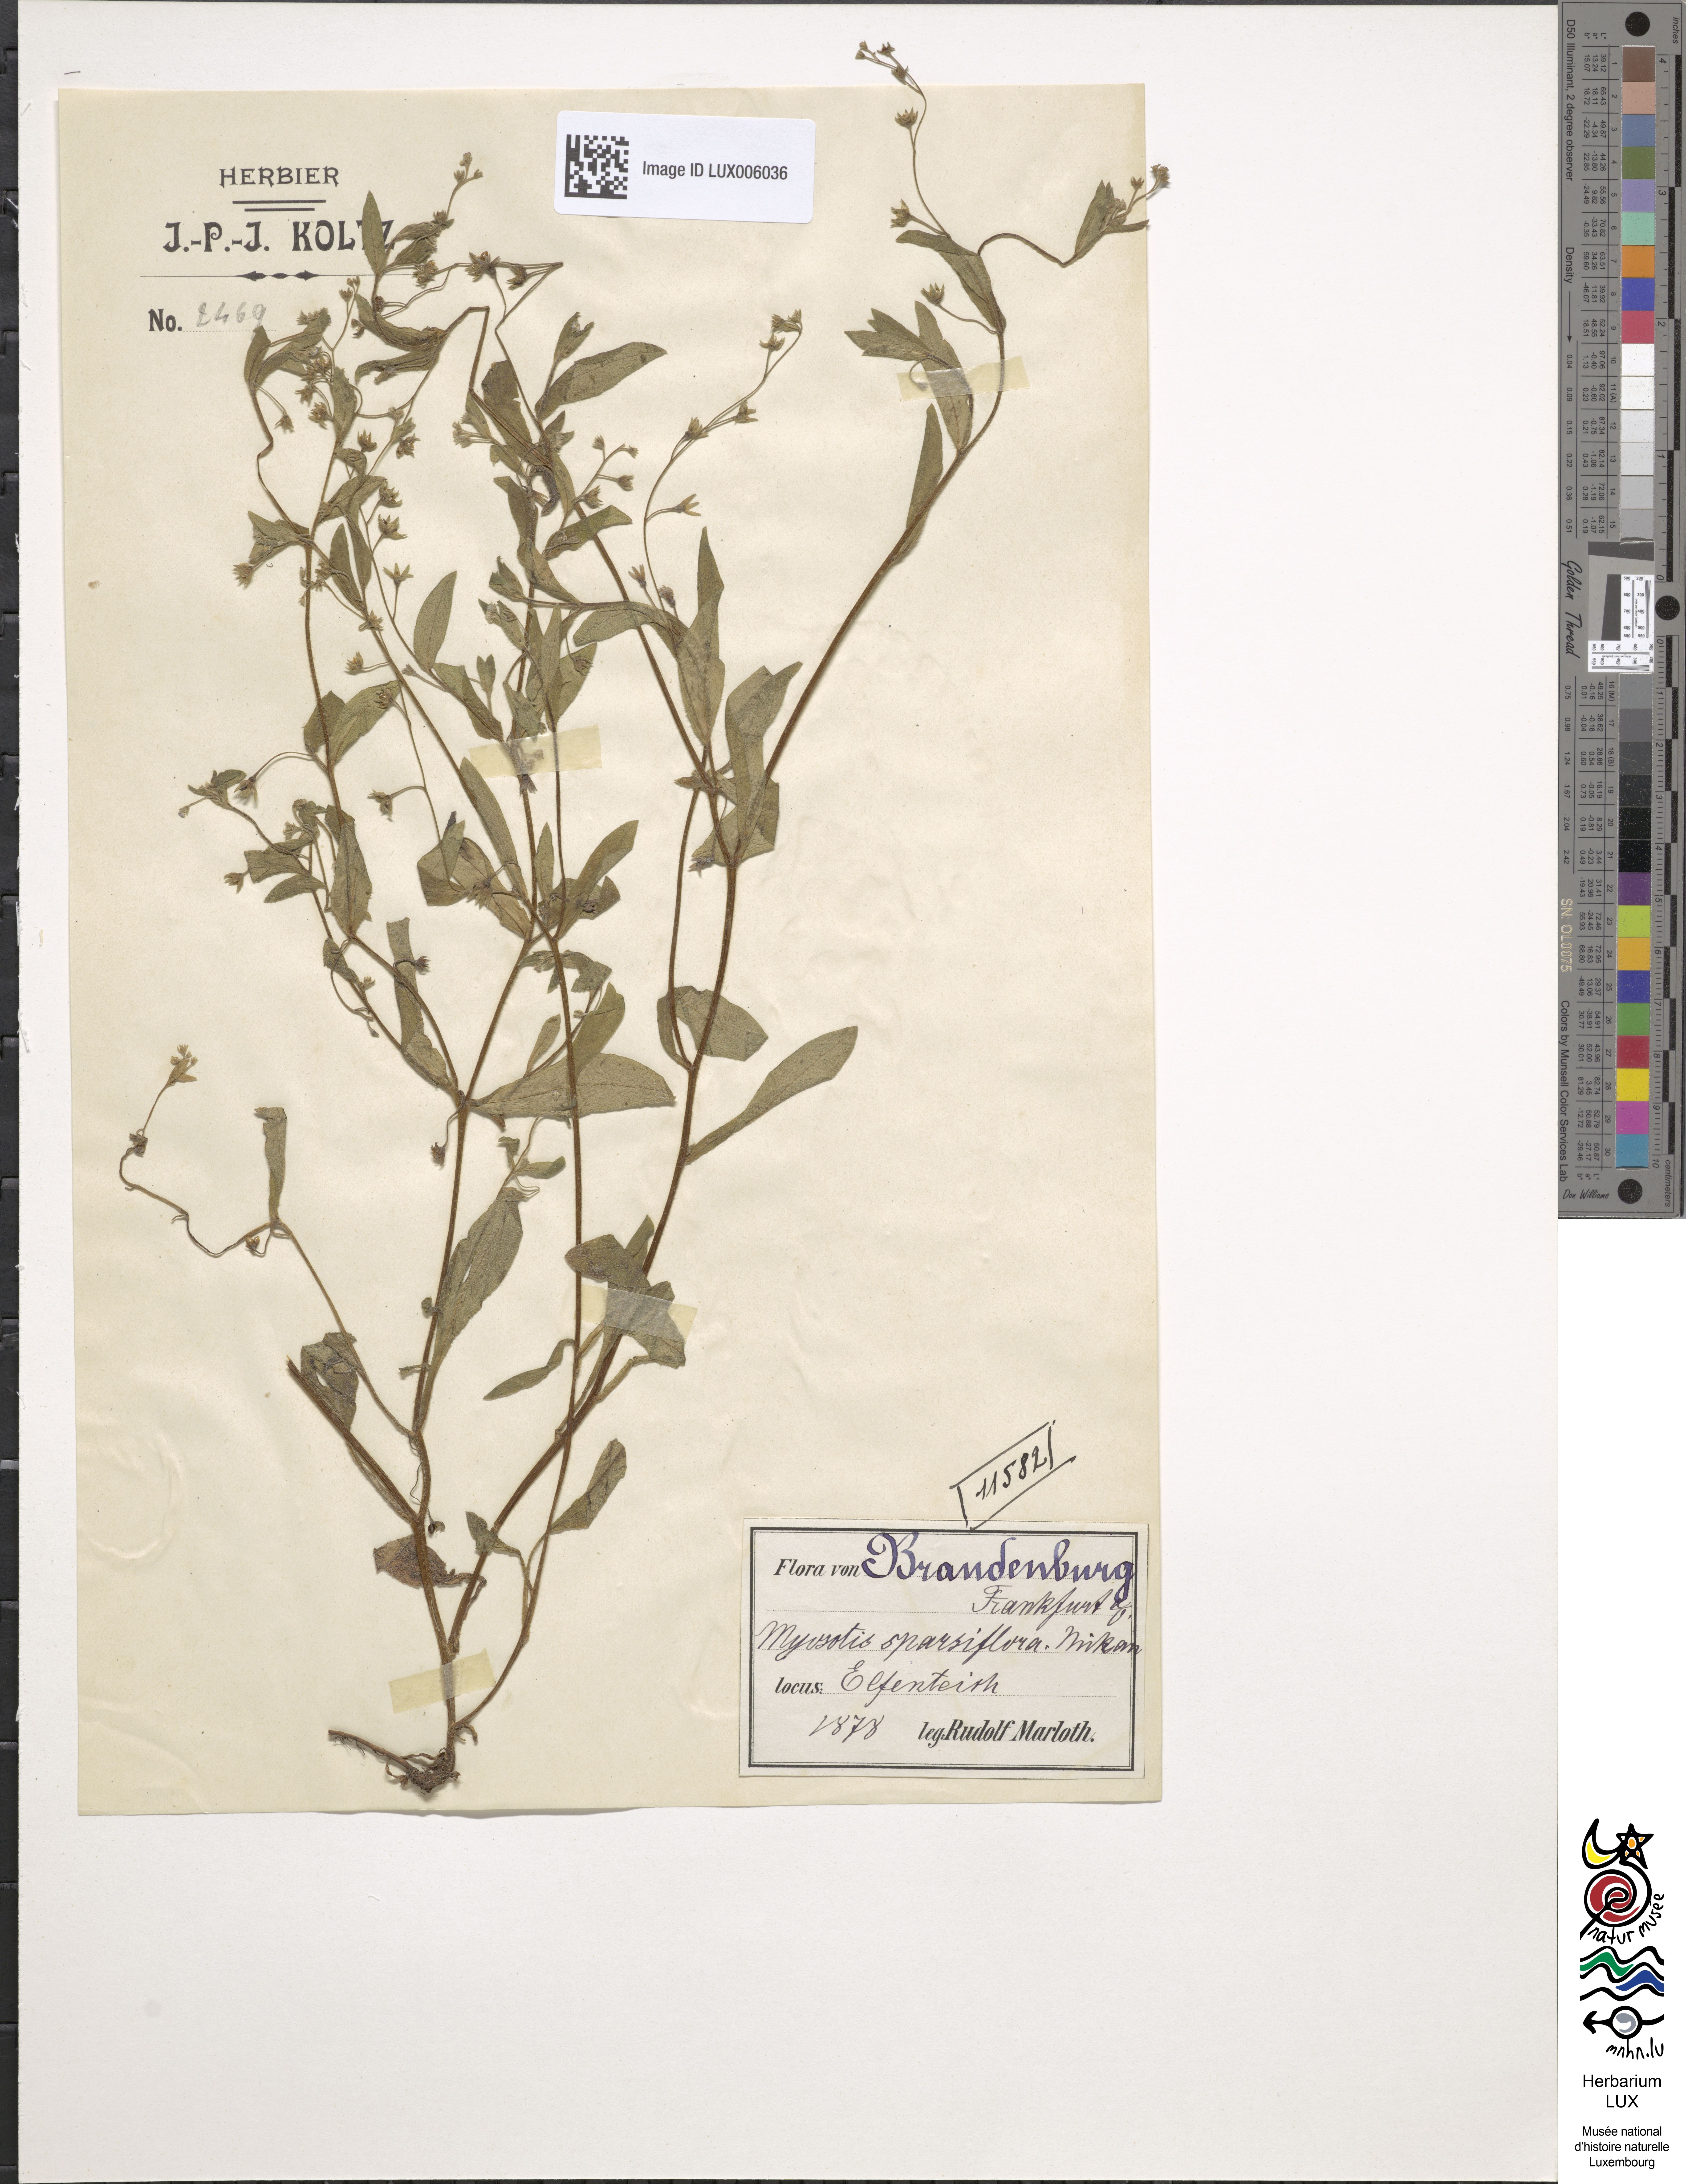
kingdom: Plantae
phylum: Tracheophyta
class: Magnoliopsida
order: Boraginales
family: Boraginaceae
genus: Myosotis
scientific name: Myosotis sparsiflora
